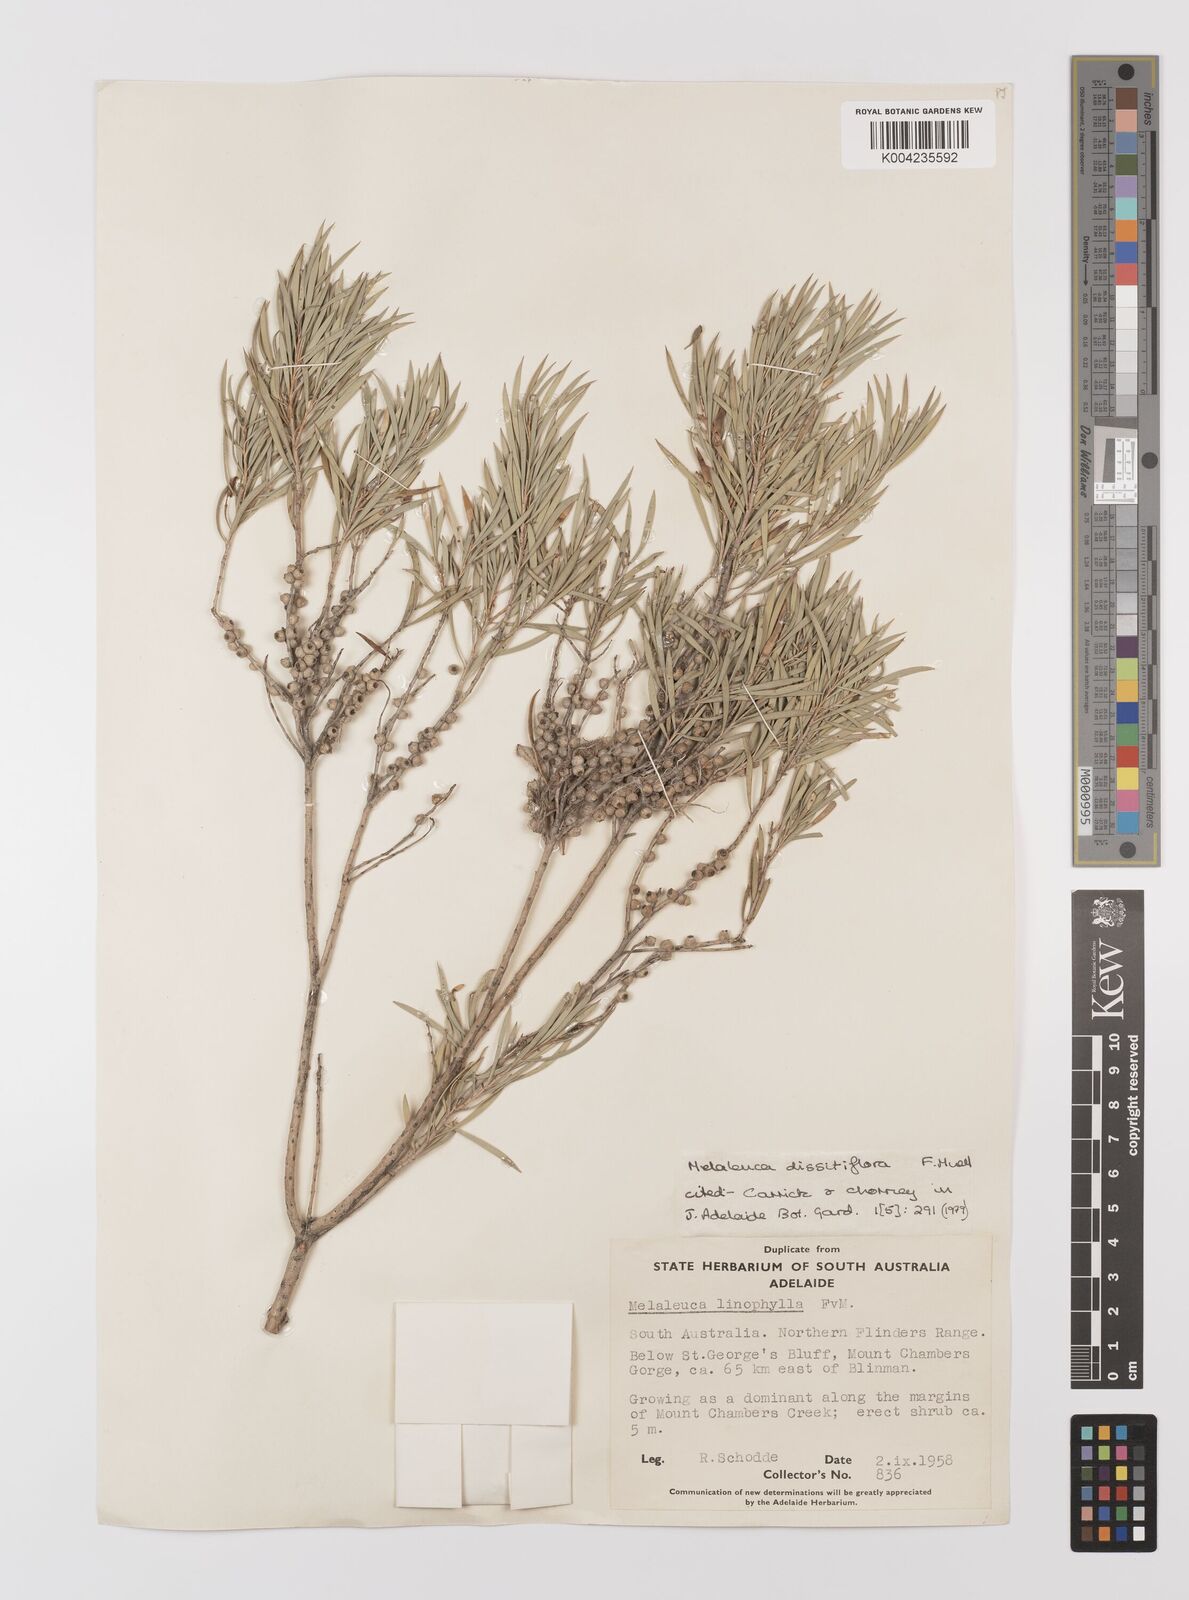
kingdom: Plantae
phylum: Tracheophyta
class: Magnoliopsida
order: Myrtales
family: Myrtaceae
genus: Melaleuca
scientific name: Melaleuca dissitiflora
